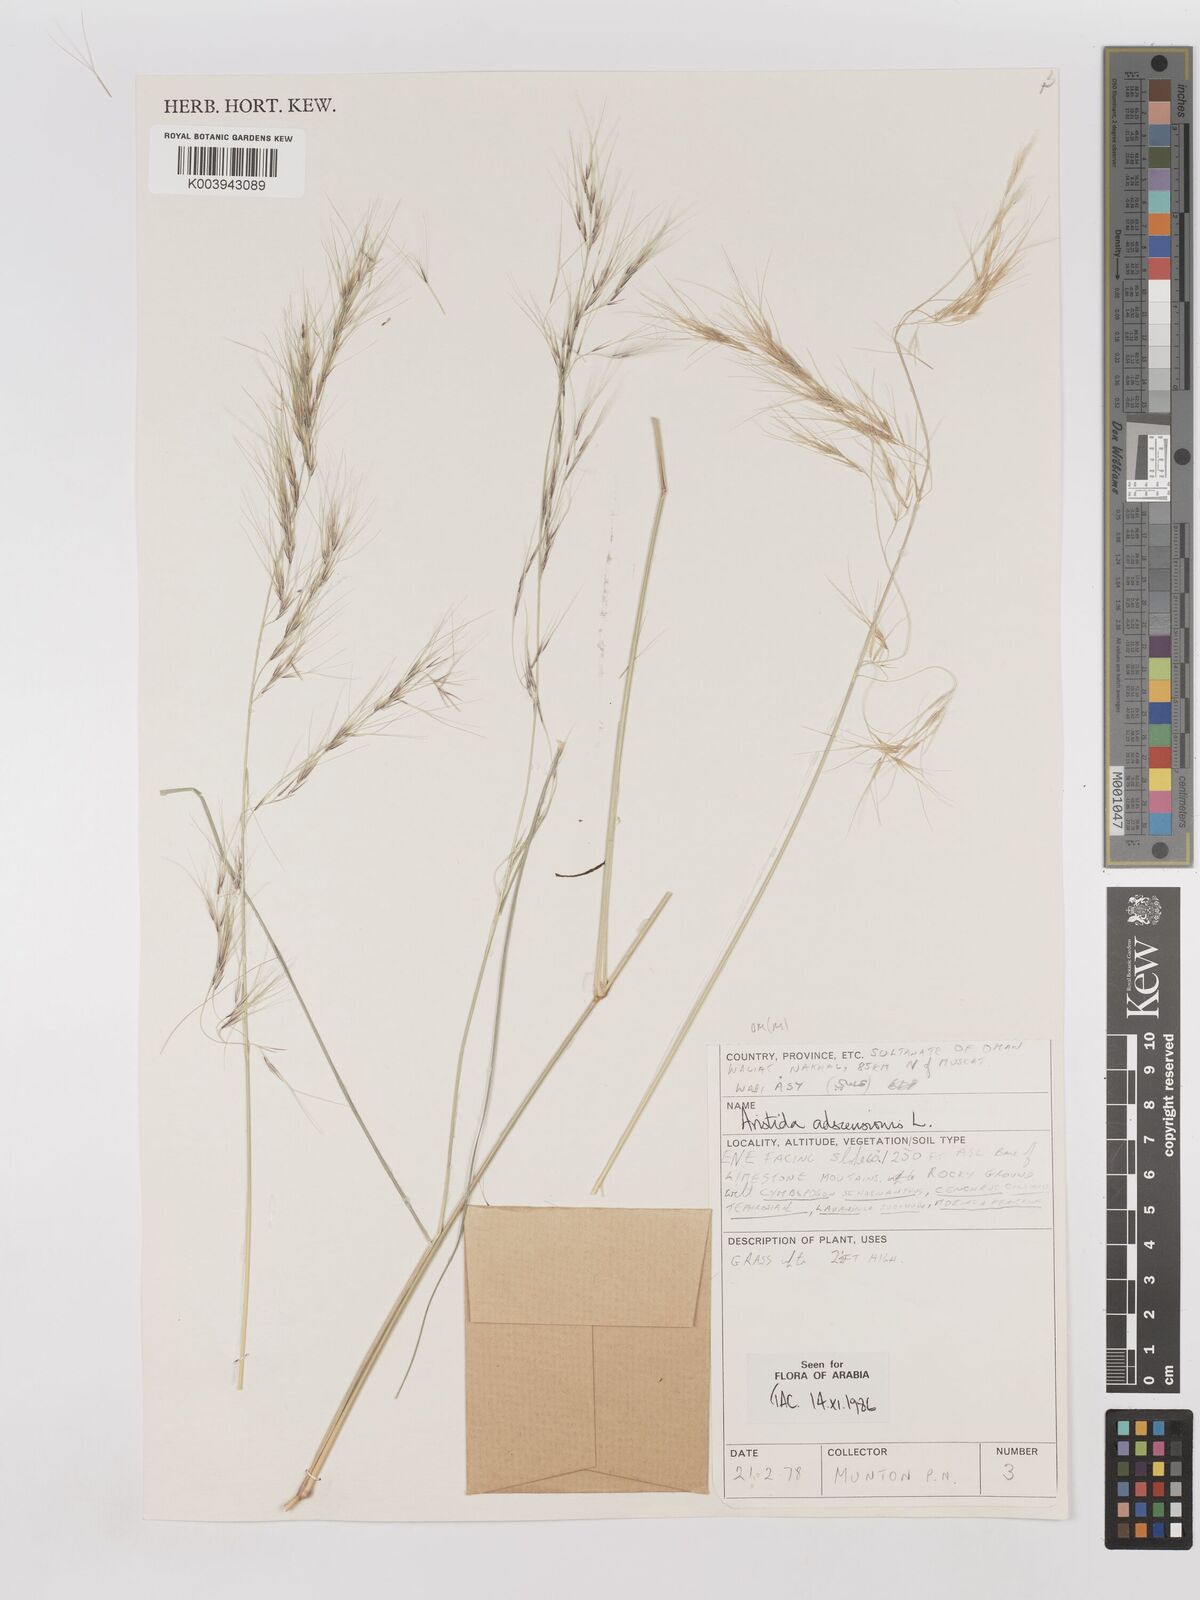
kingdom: Plantae
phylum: Tracheophyta
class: Liliopsida
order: Poales
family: Poaceae
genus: Aristida
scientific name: Aristida adscensionis
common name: Sixweeks threeawn
